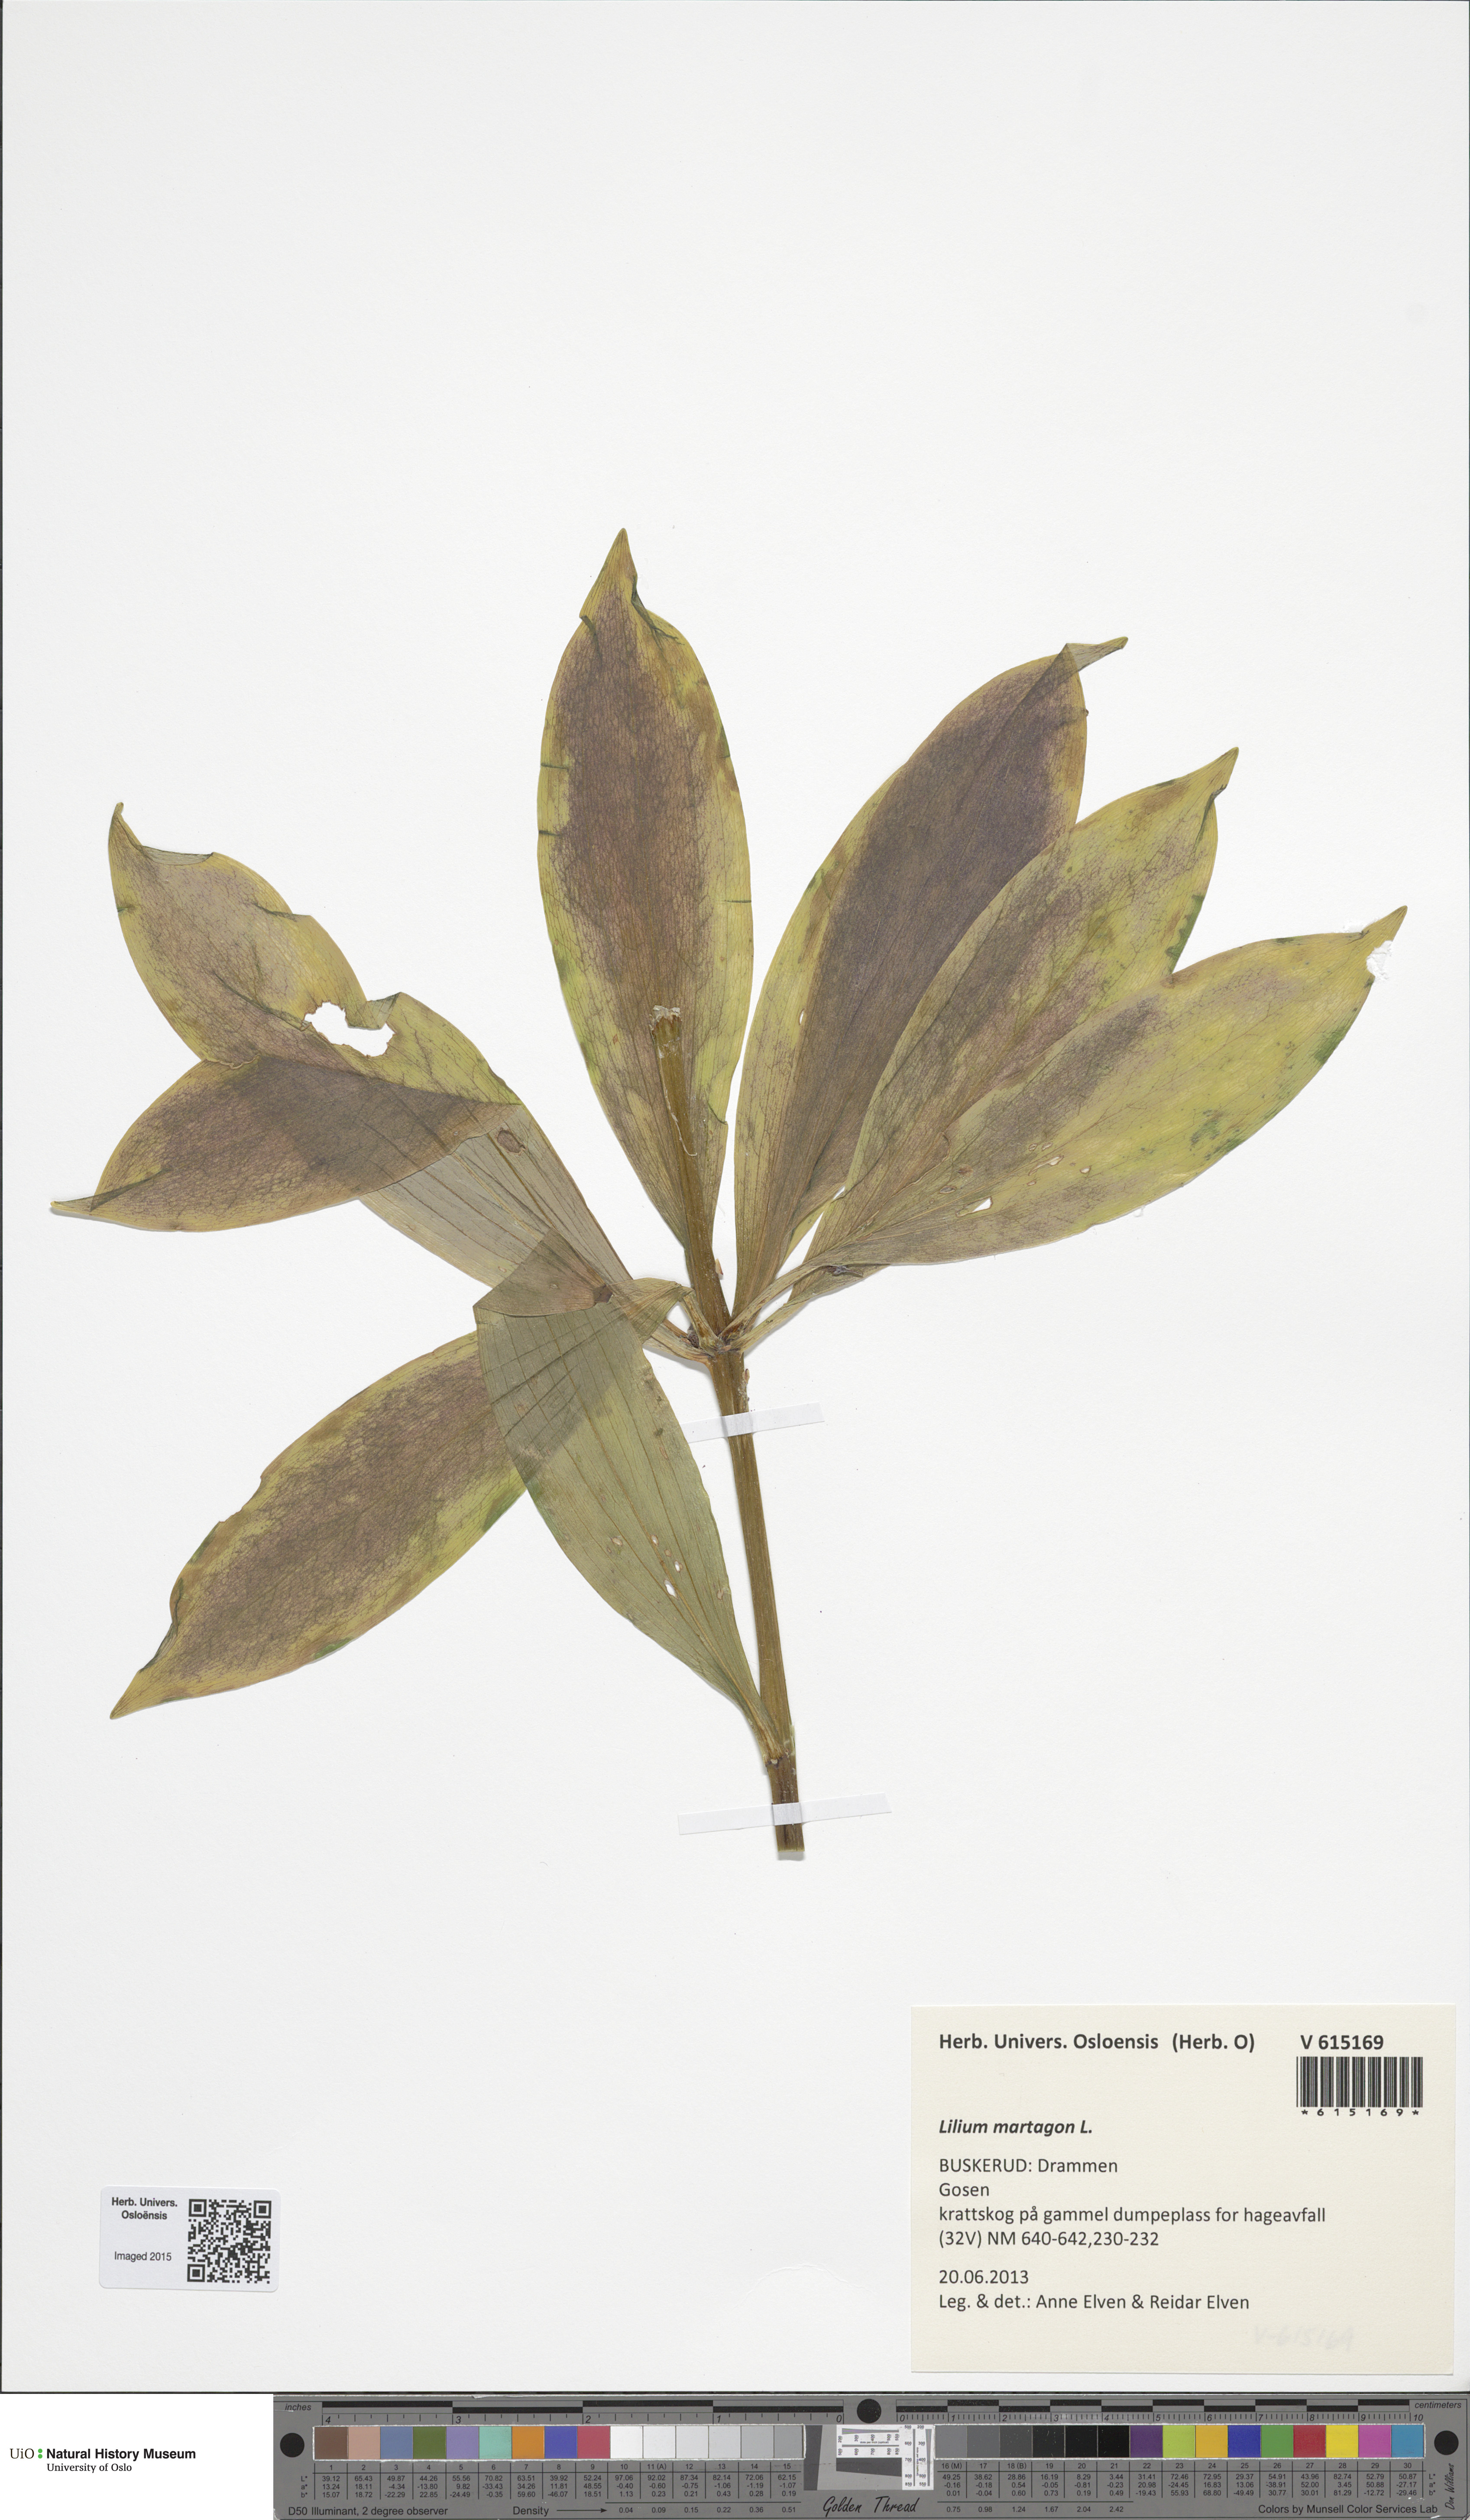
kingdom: Plantae
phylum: Tracheophyta
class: Liliopsida
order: Liliales
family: Liliaceae
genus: Lilium
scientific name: Lilium martagon
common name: Martagon lily
